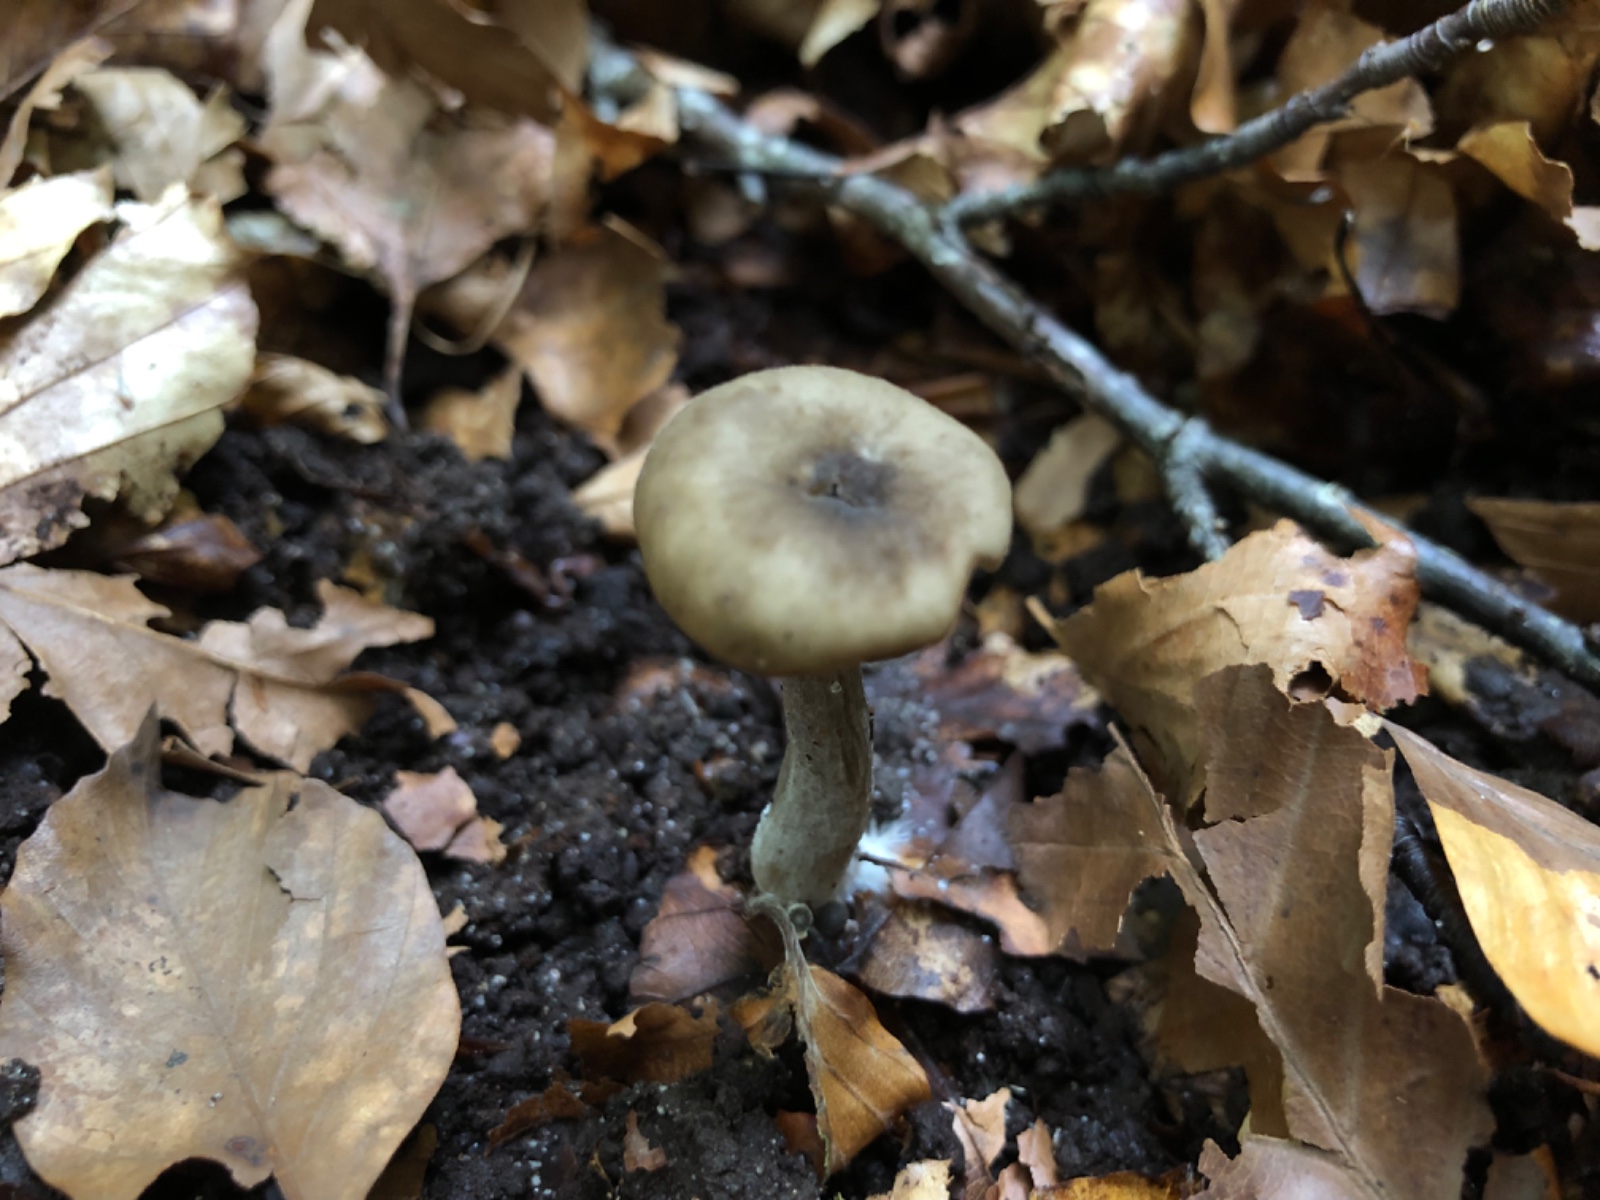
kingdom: Fungi
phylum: Basidiomycota
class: Agaricomycetes
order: Agaricales
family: Hygrophoraceae
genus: Hygrophorus
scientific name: Hygrophorus mesotephrus
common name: askegrå sneglehat
